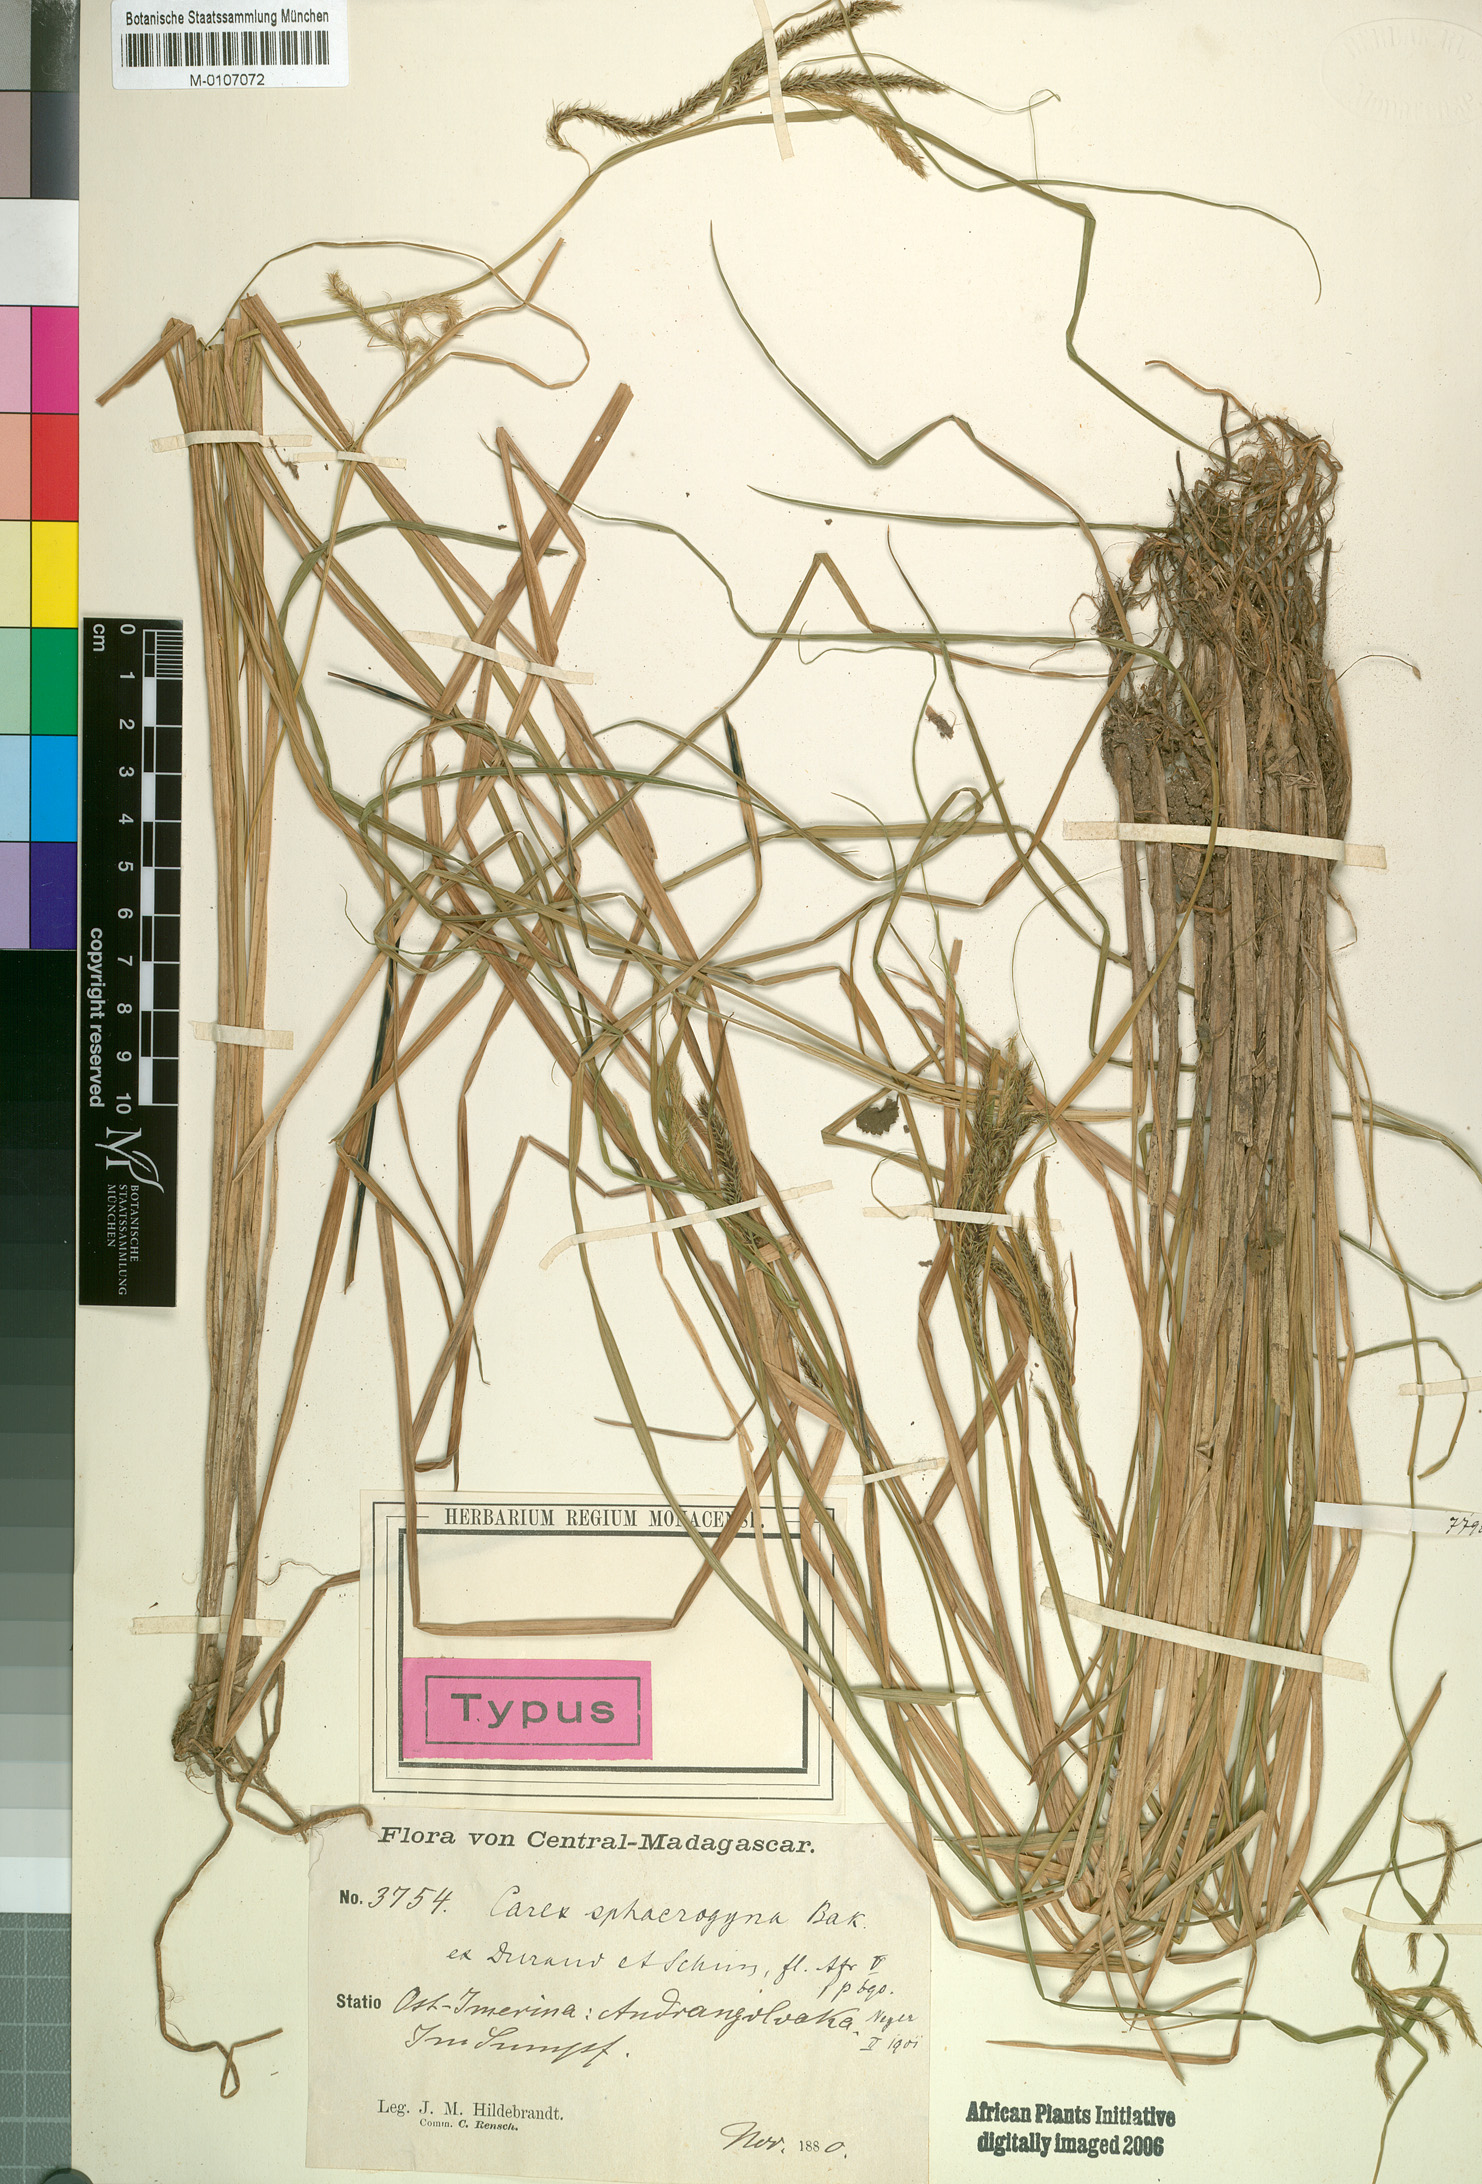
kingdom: Plantae
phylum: Tracheophyta
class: Liliopsida
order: Poales
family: Cyperaceae
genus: Carex
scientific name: Carex sphaerogyna
